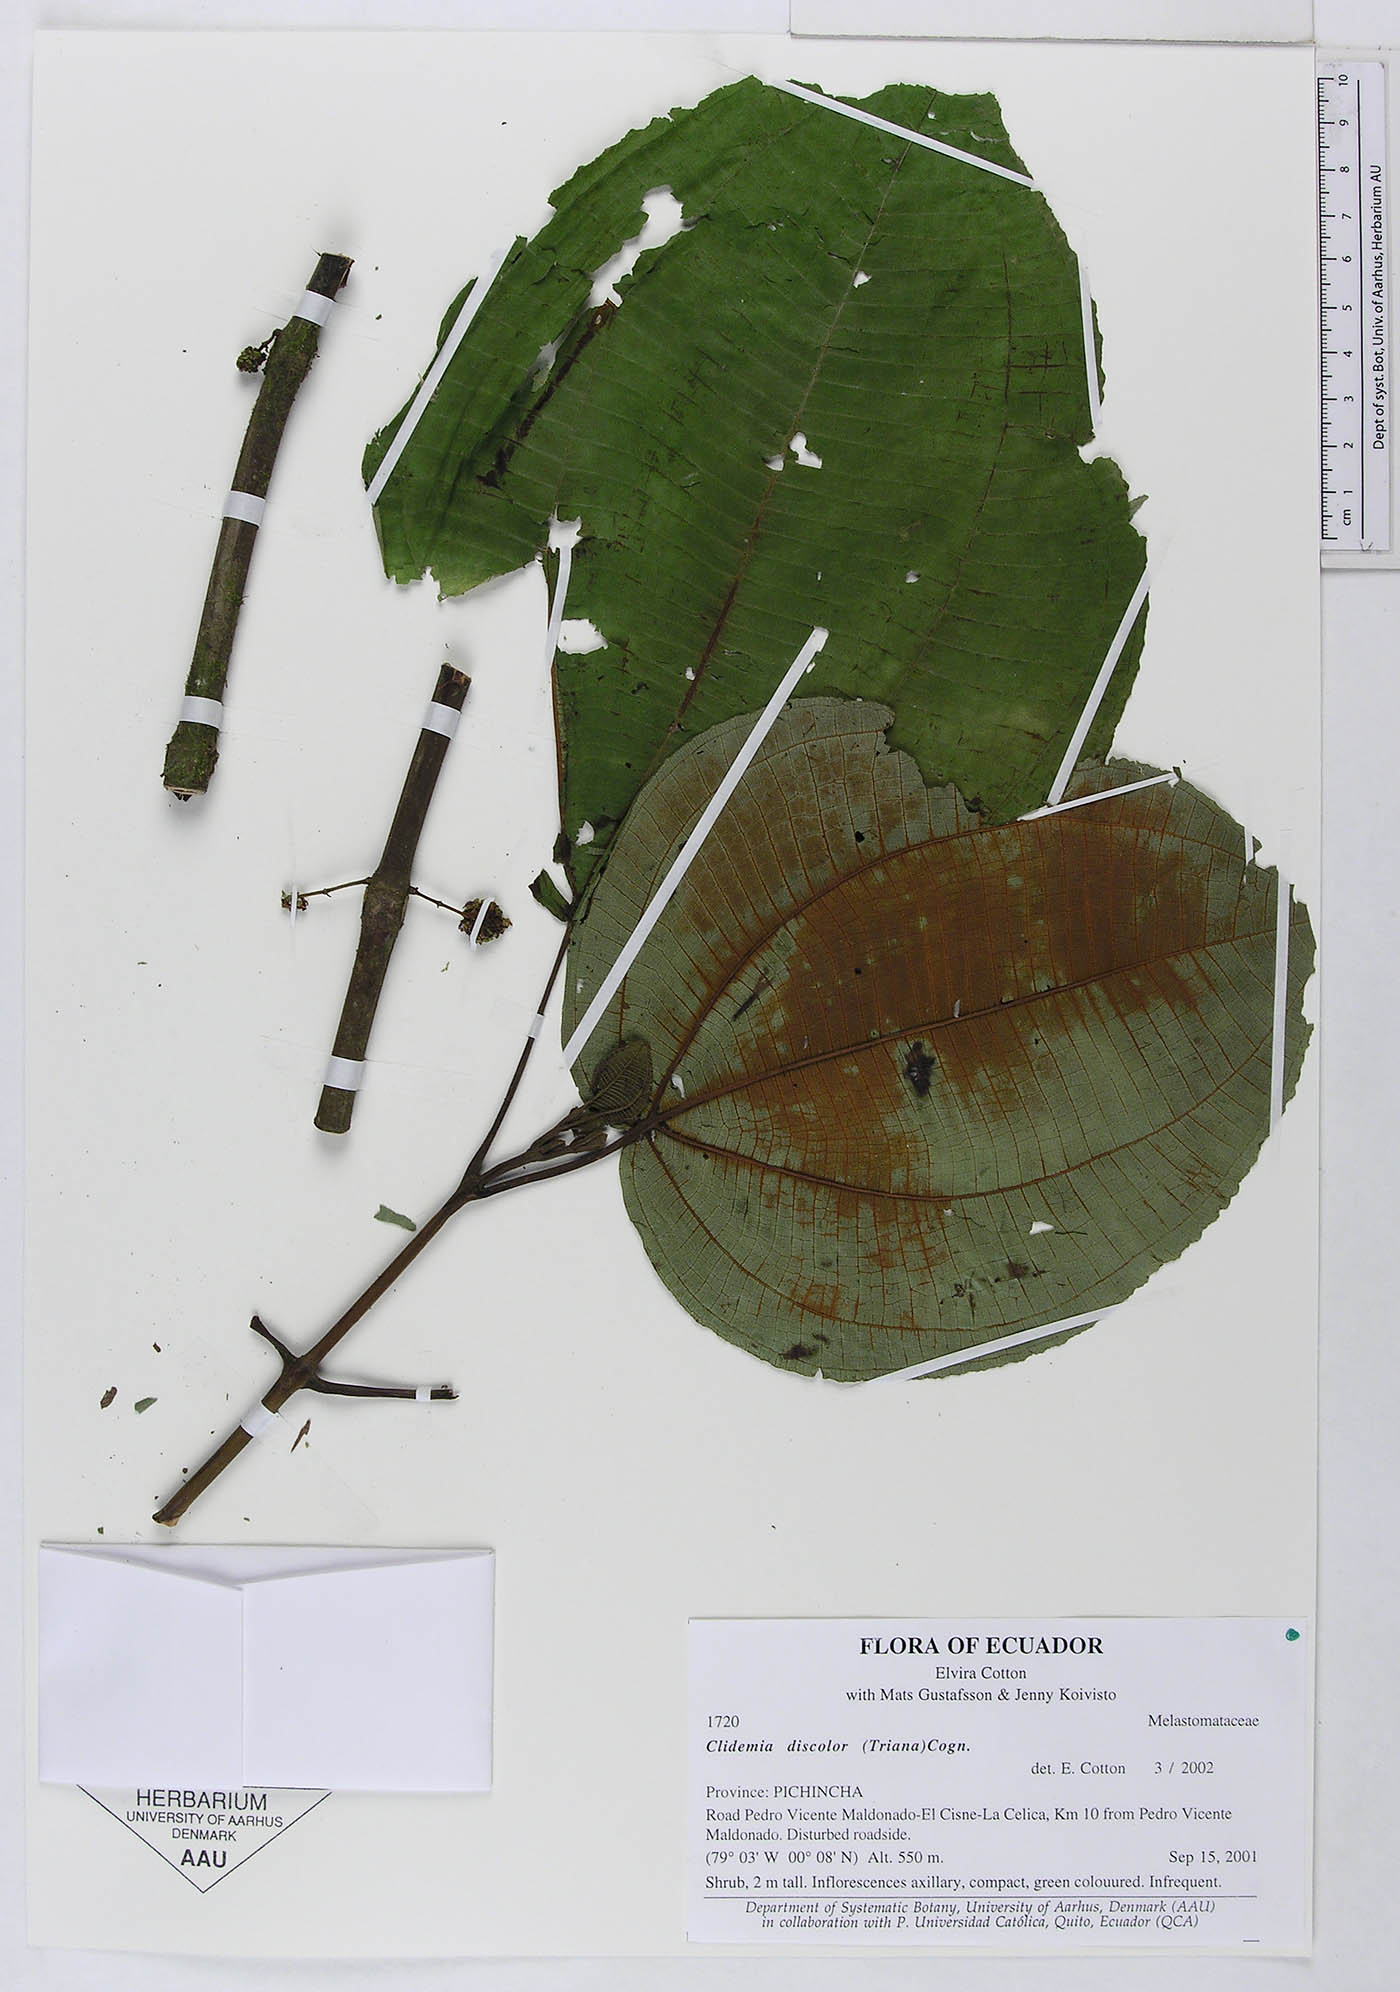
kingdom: Plantae
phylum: Tracheophyta
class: Magnoliopsida
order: Myrtales
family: Melastomataceae
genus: Miconia
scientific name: Miconia purpureoviolacea
